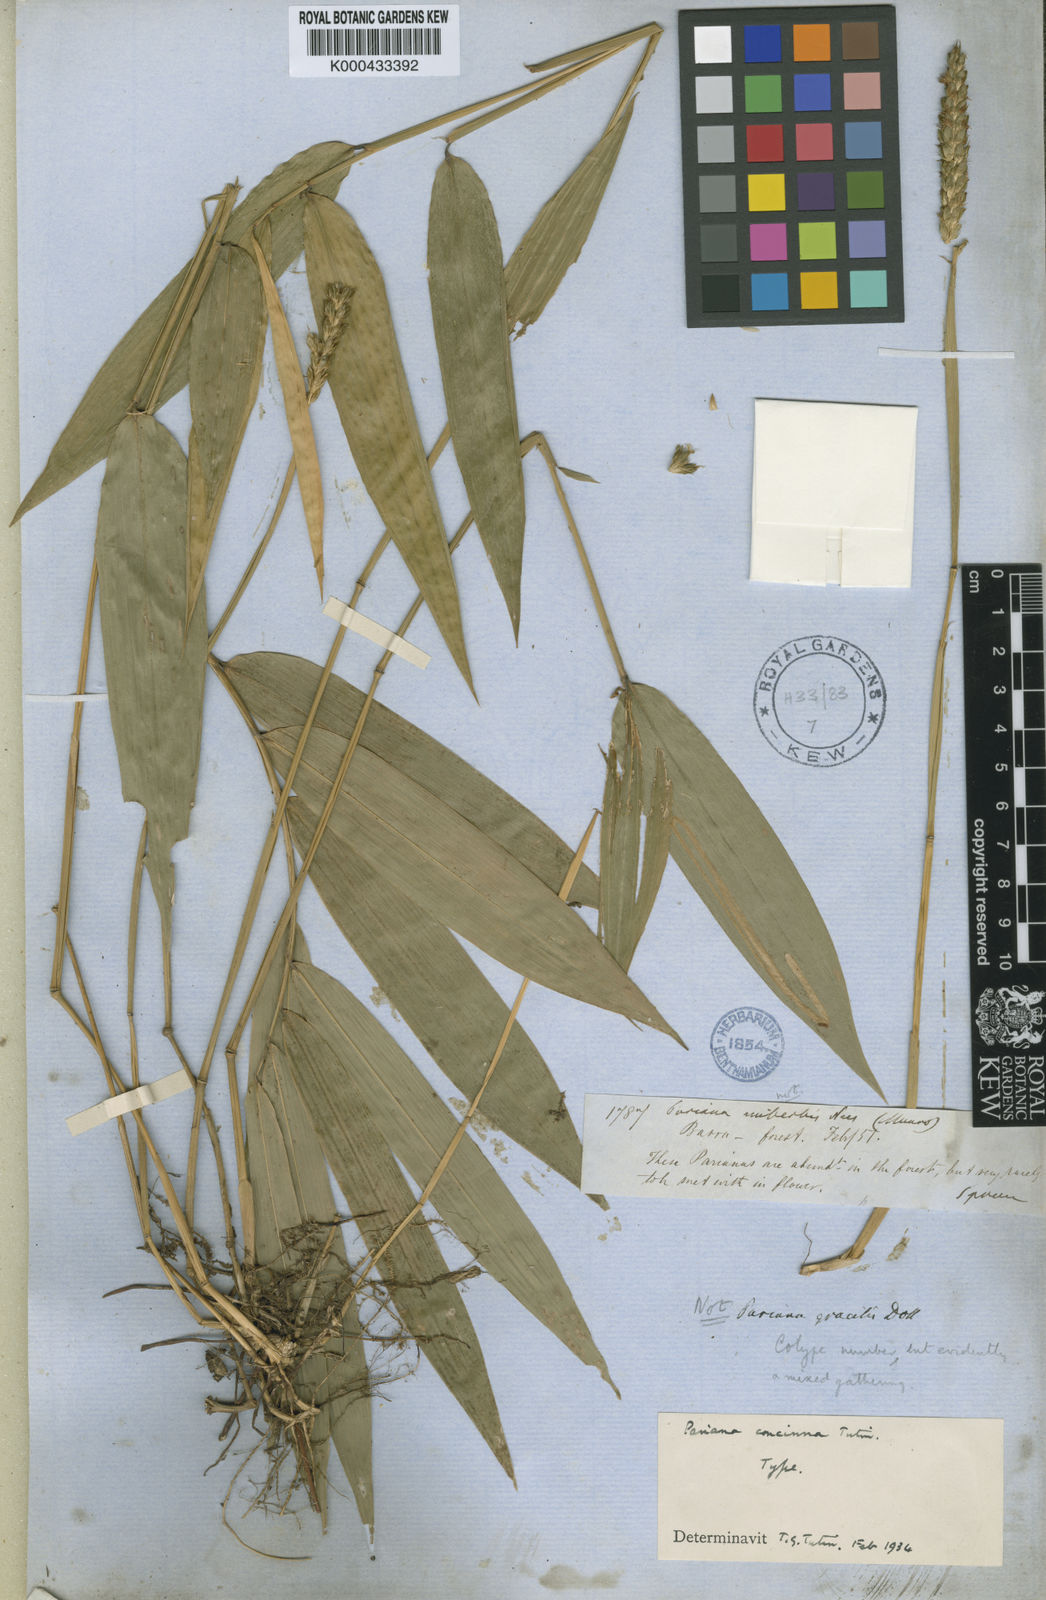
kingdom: Plantae
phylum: Tracheophyta
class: Liliopsida
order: Poales
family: Poaceae
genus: Pariana
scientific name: Pariana concinna
